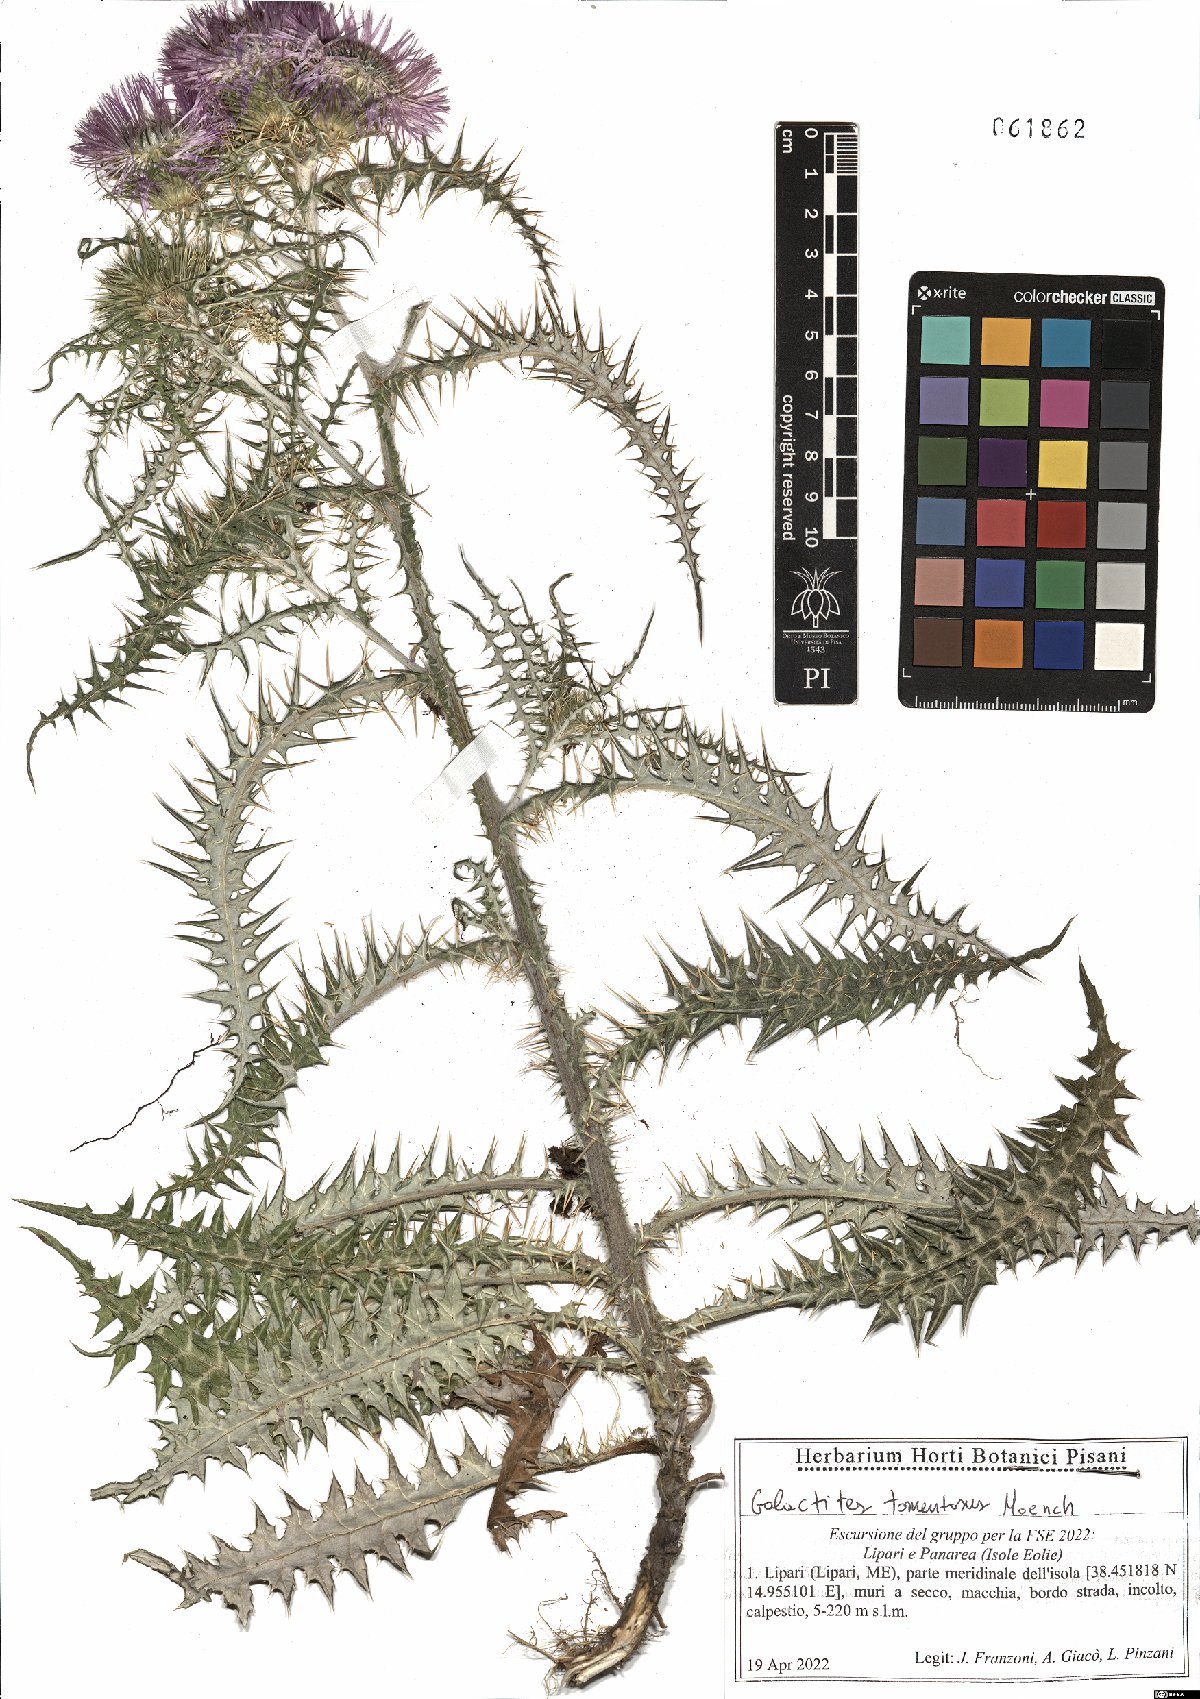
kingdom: Plantae
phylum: Tracheophyta
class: Magnoliopsida
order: Asterales
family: Asteraceae
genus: Galactites
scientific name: Galactites tomentosa
